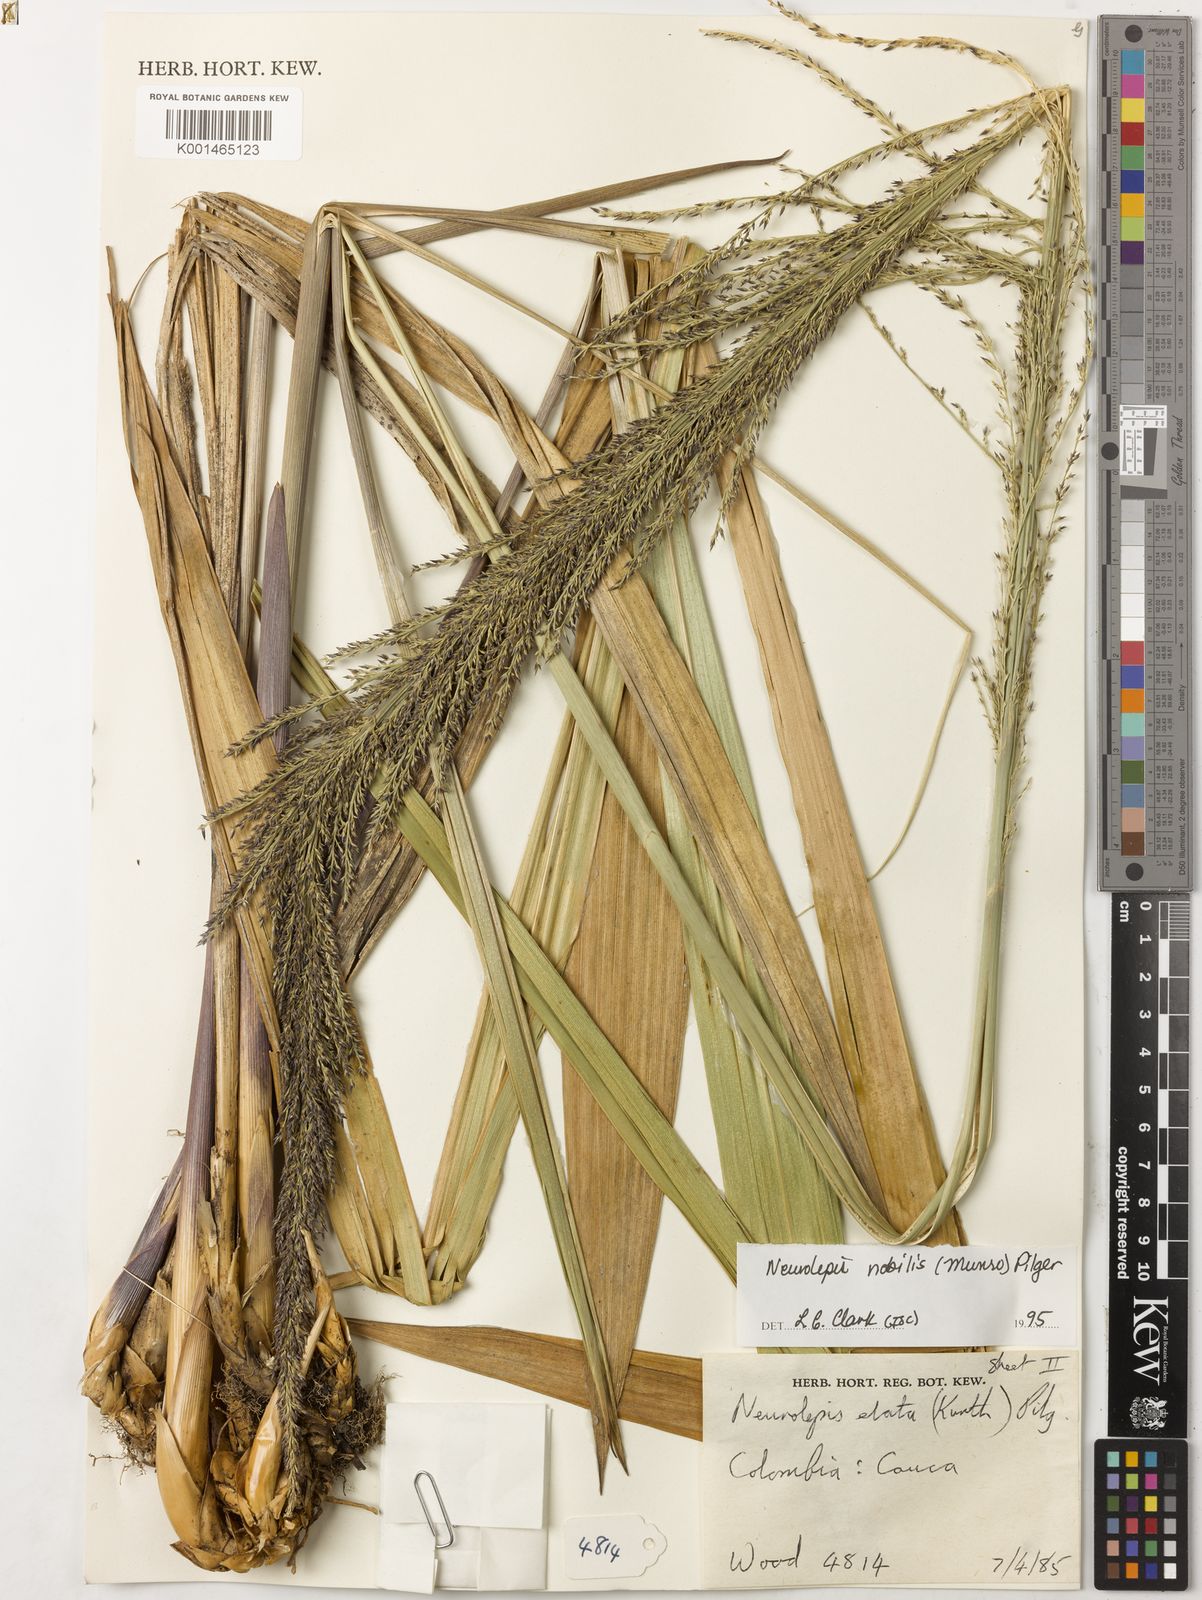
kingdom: Plantae
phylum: Tracheophyta
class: Liliopsida
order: Poales
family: Poaceae
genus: Chusquea
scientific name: Chusquea nobilis
